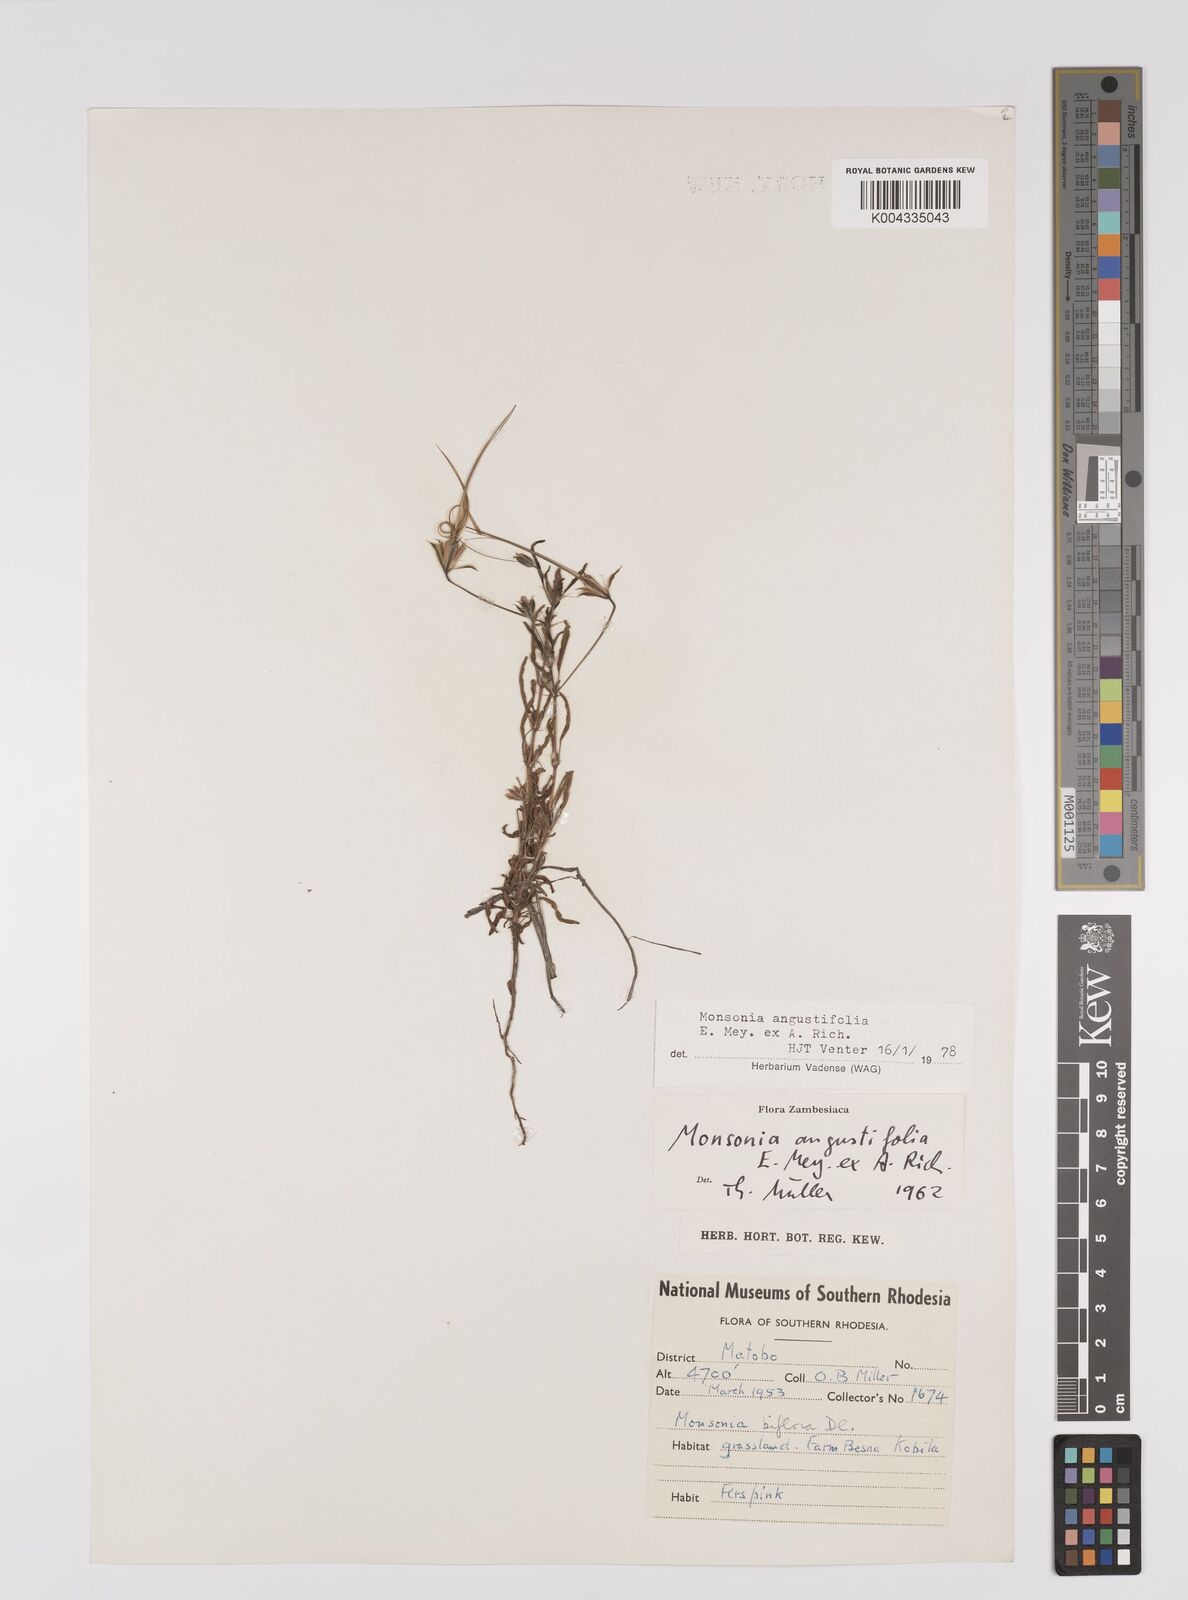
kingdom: Plantae
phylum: Tracheophyta
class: Magnoliopsida
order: Geraniales
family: Geraniaceae
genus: Monsonia
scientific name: Monsonia angustifolia
